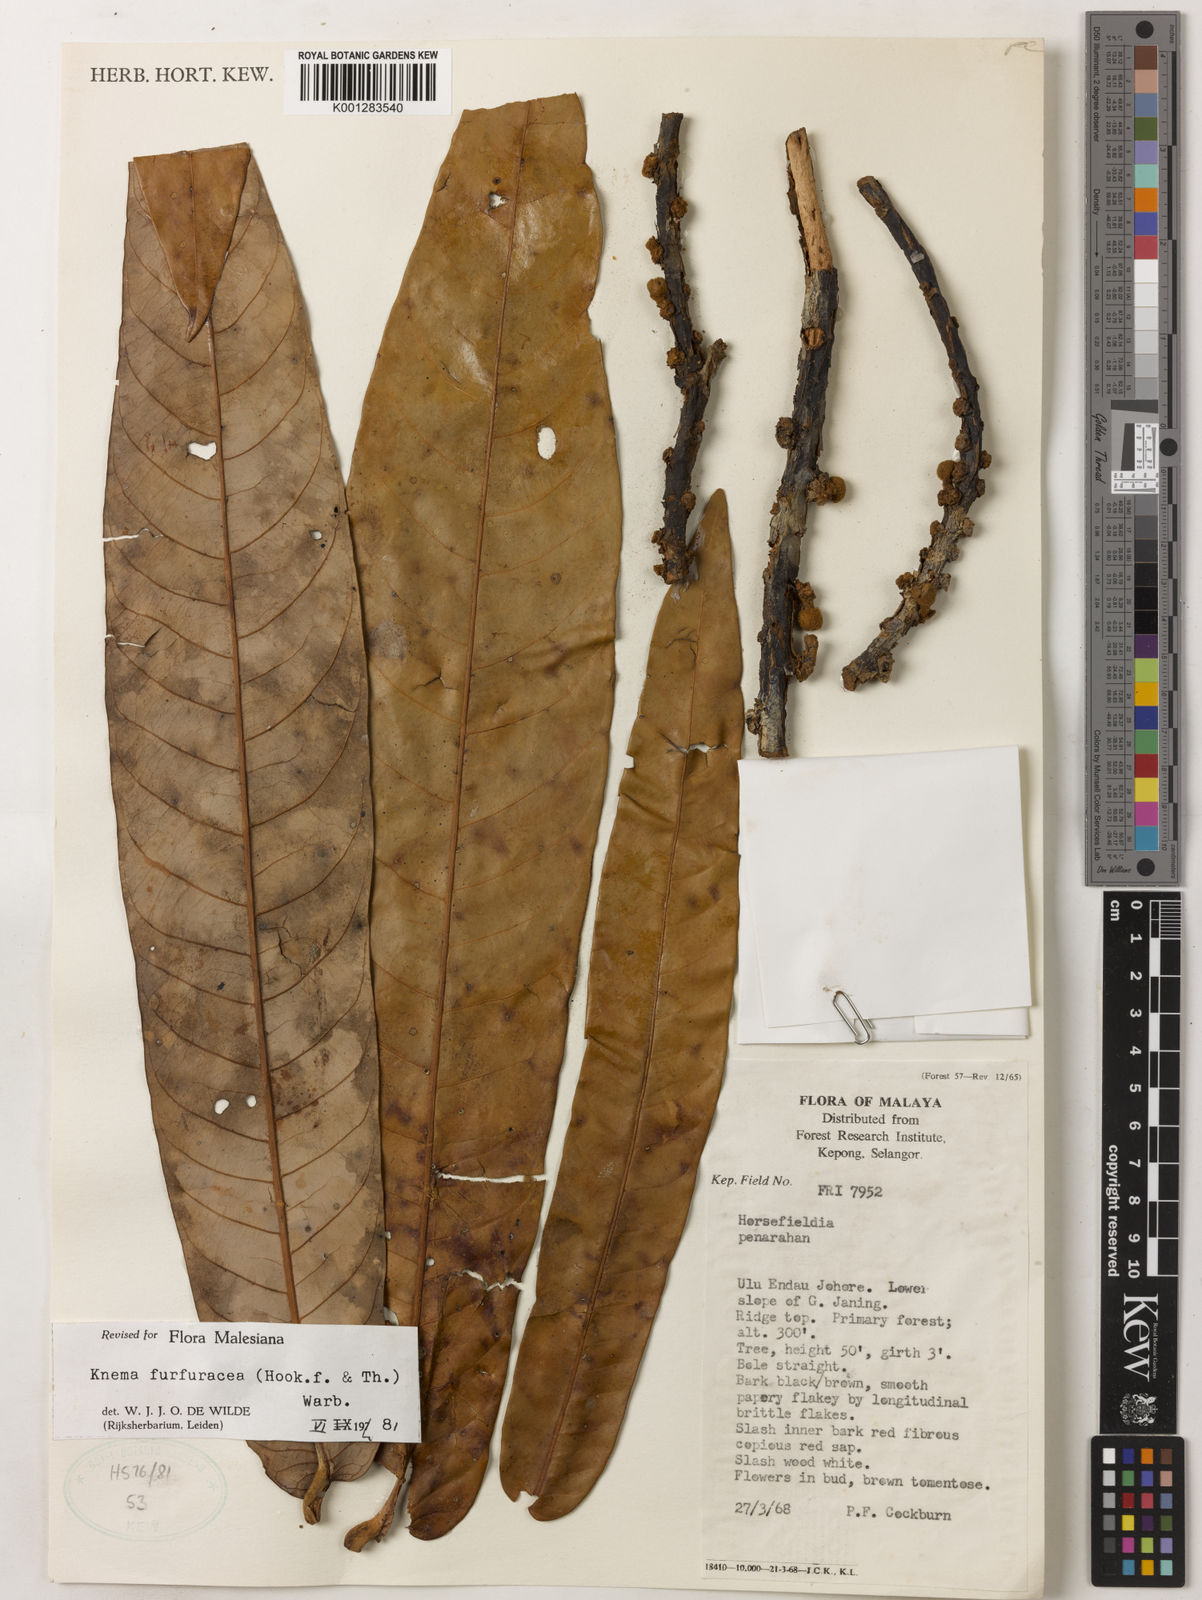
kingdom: Plantae
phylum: Tracheophyta
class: Magnoliopsida
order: Magnoliales
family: Myristicaceae
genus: Knema
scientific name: Knema furfuracea
